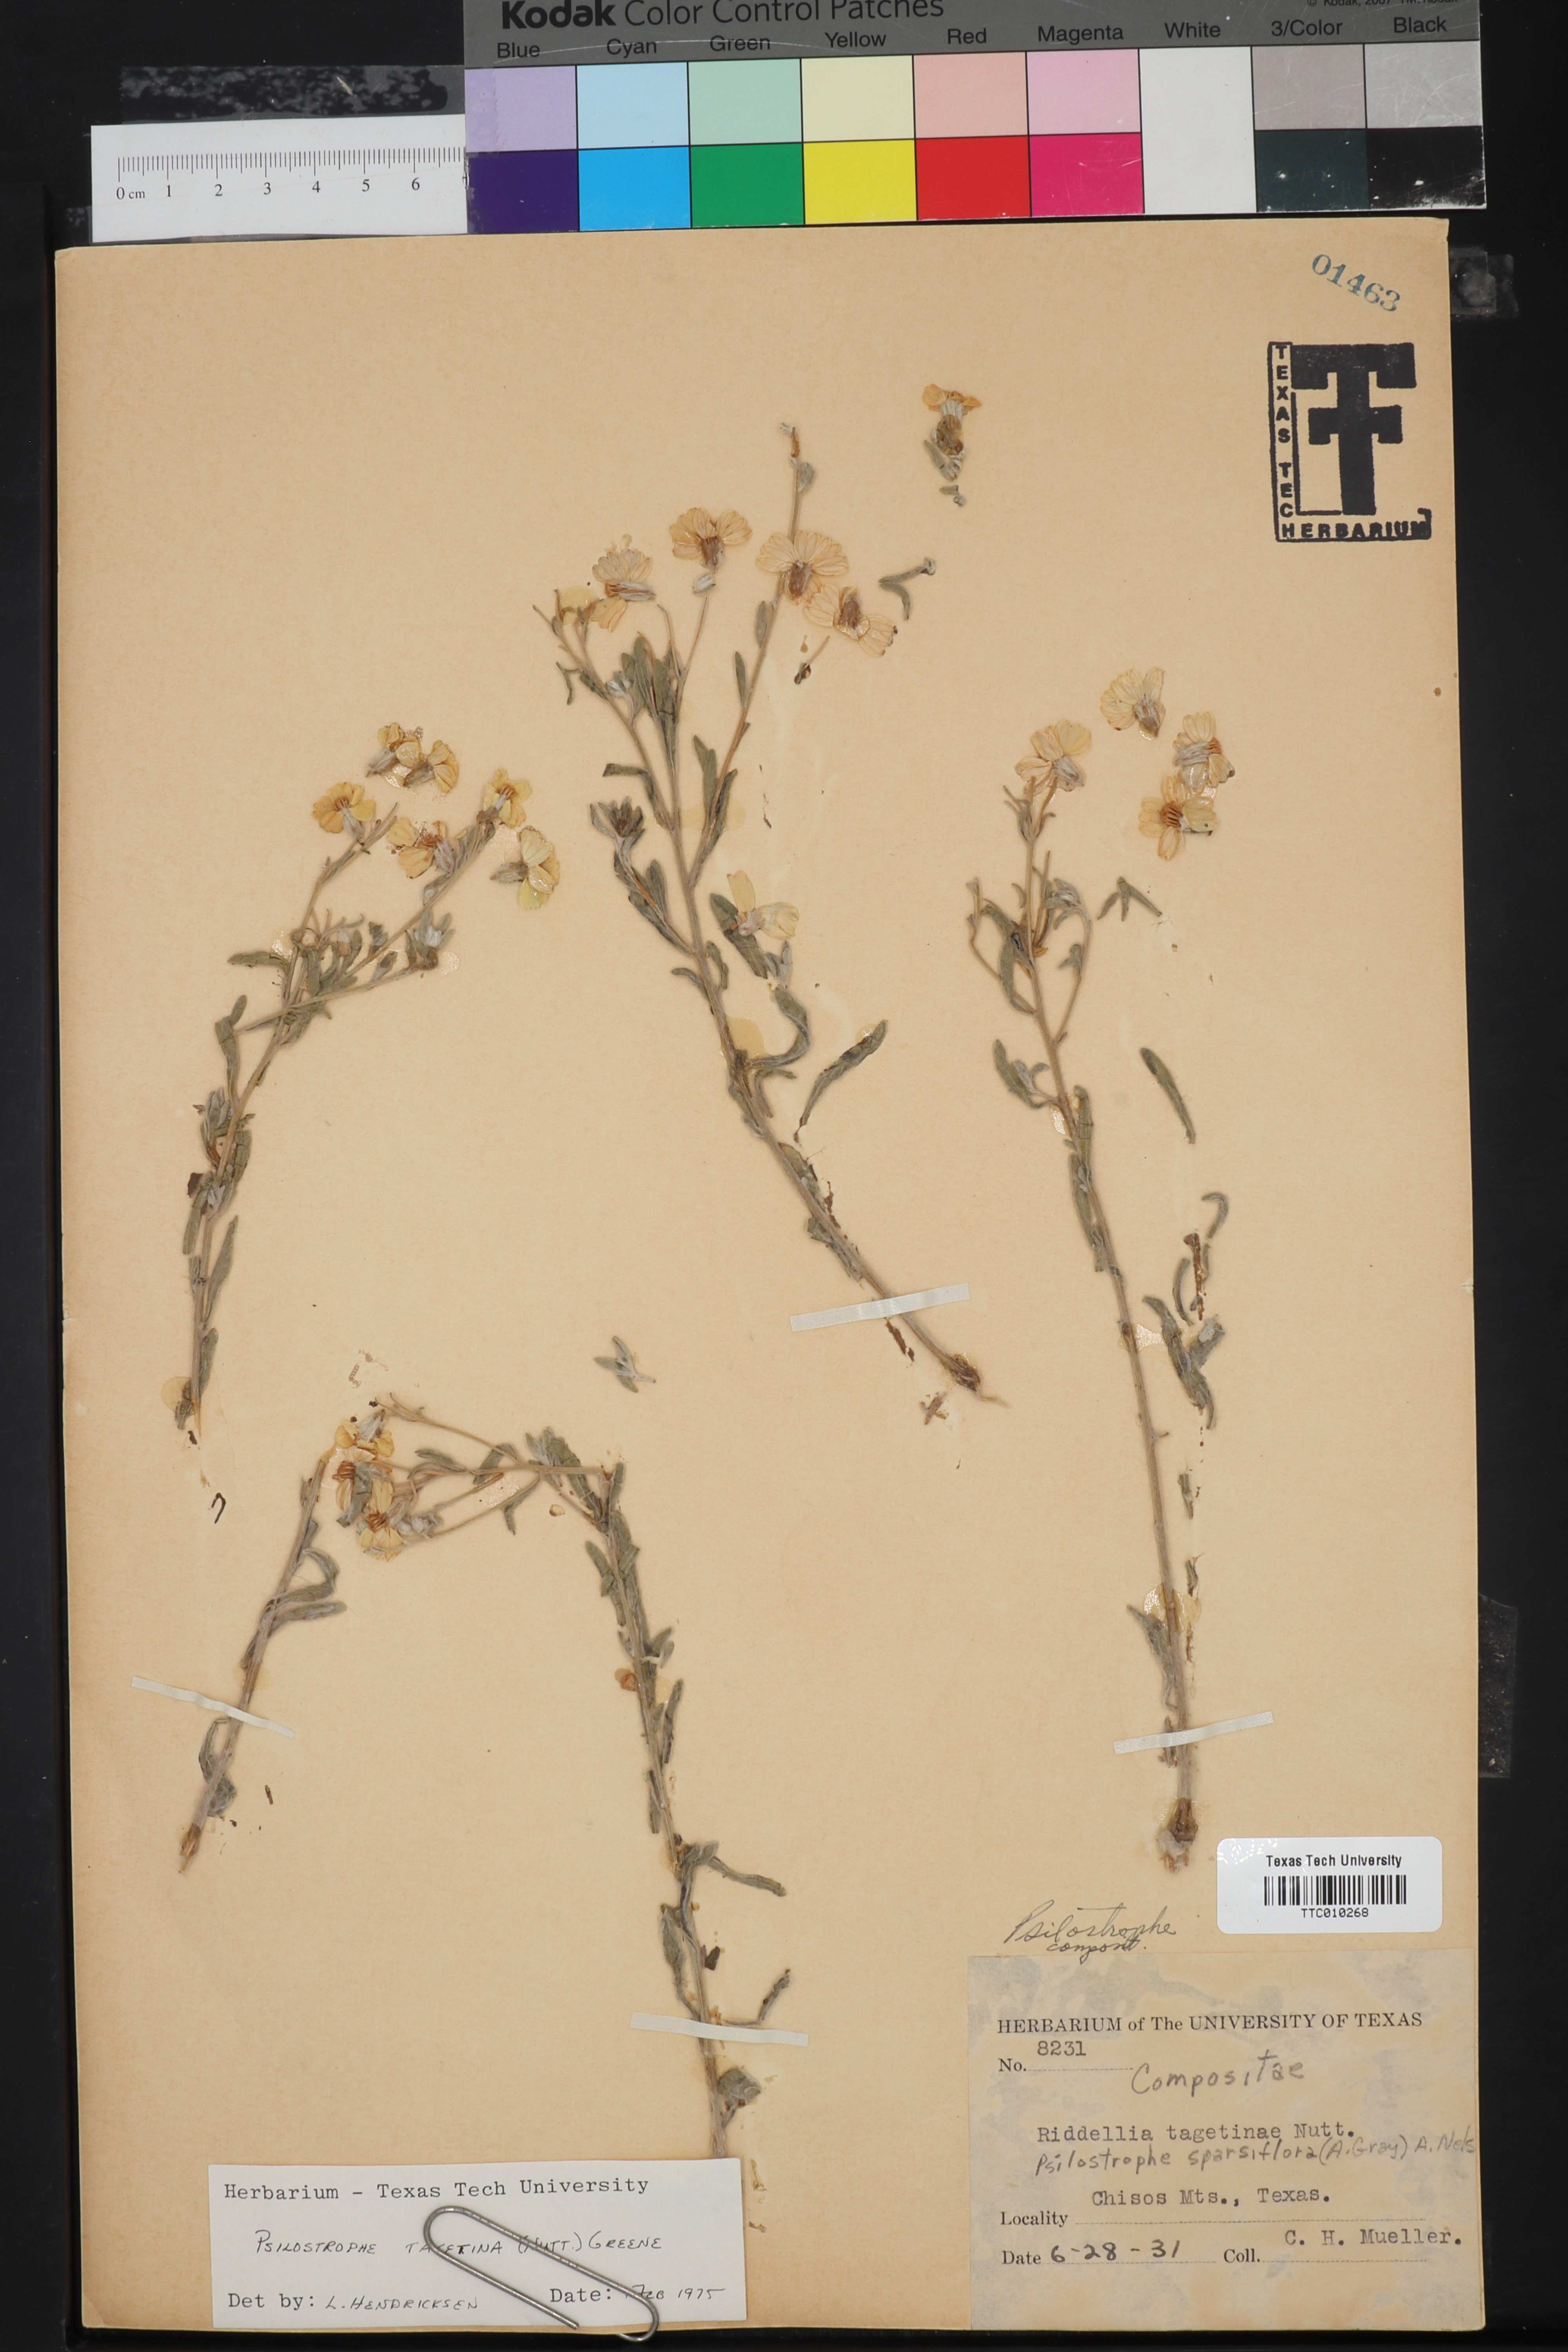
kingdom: Plantae
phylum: Tracheophyta
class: Magnoliopsida
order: Asterales
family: Asteraceae
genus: Psilostrophe
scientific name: Psilostrophe tagetina
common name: Marigold paper-flower
